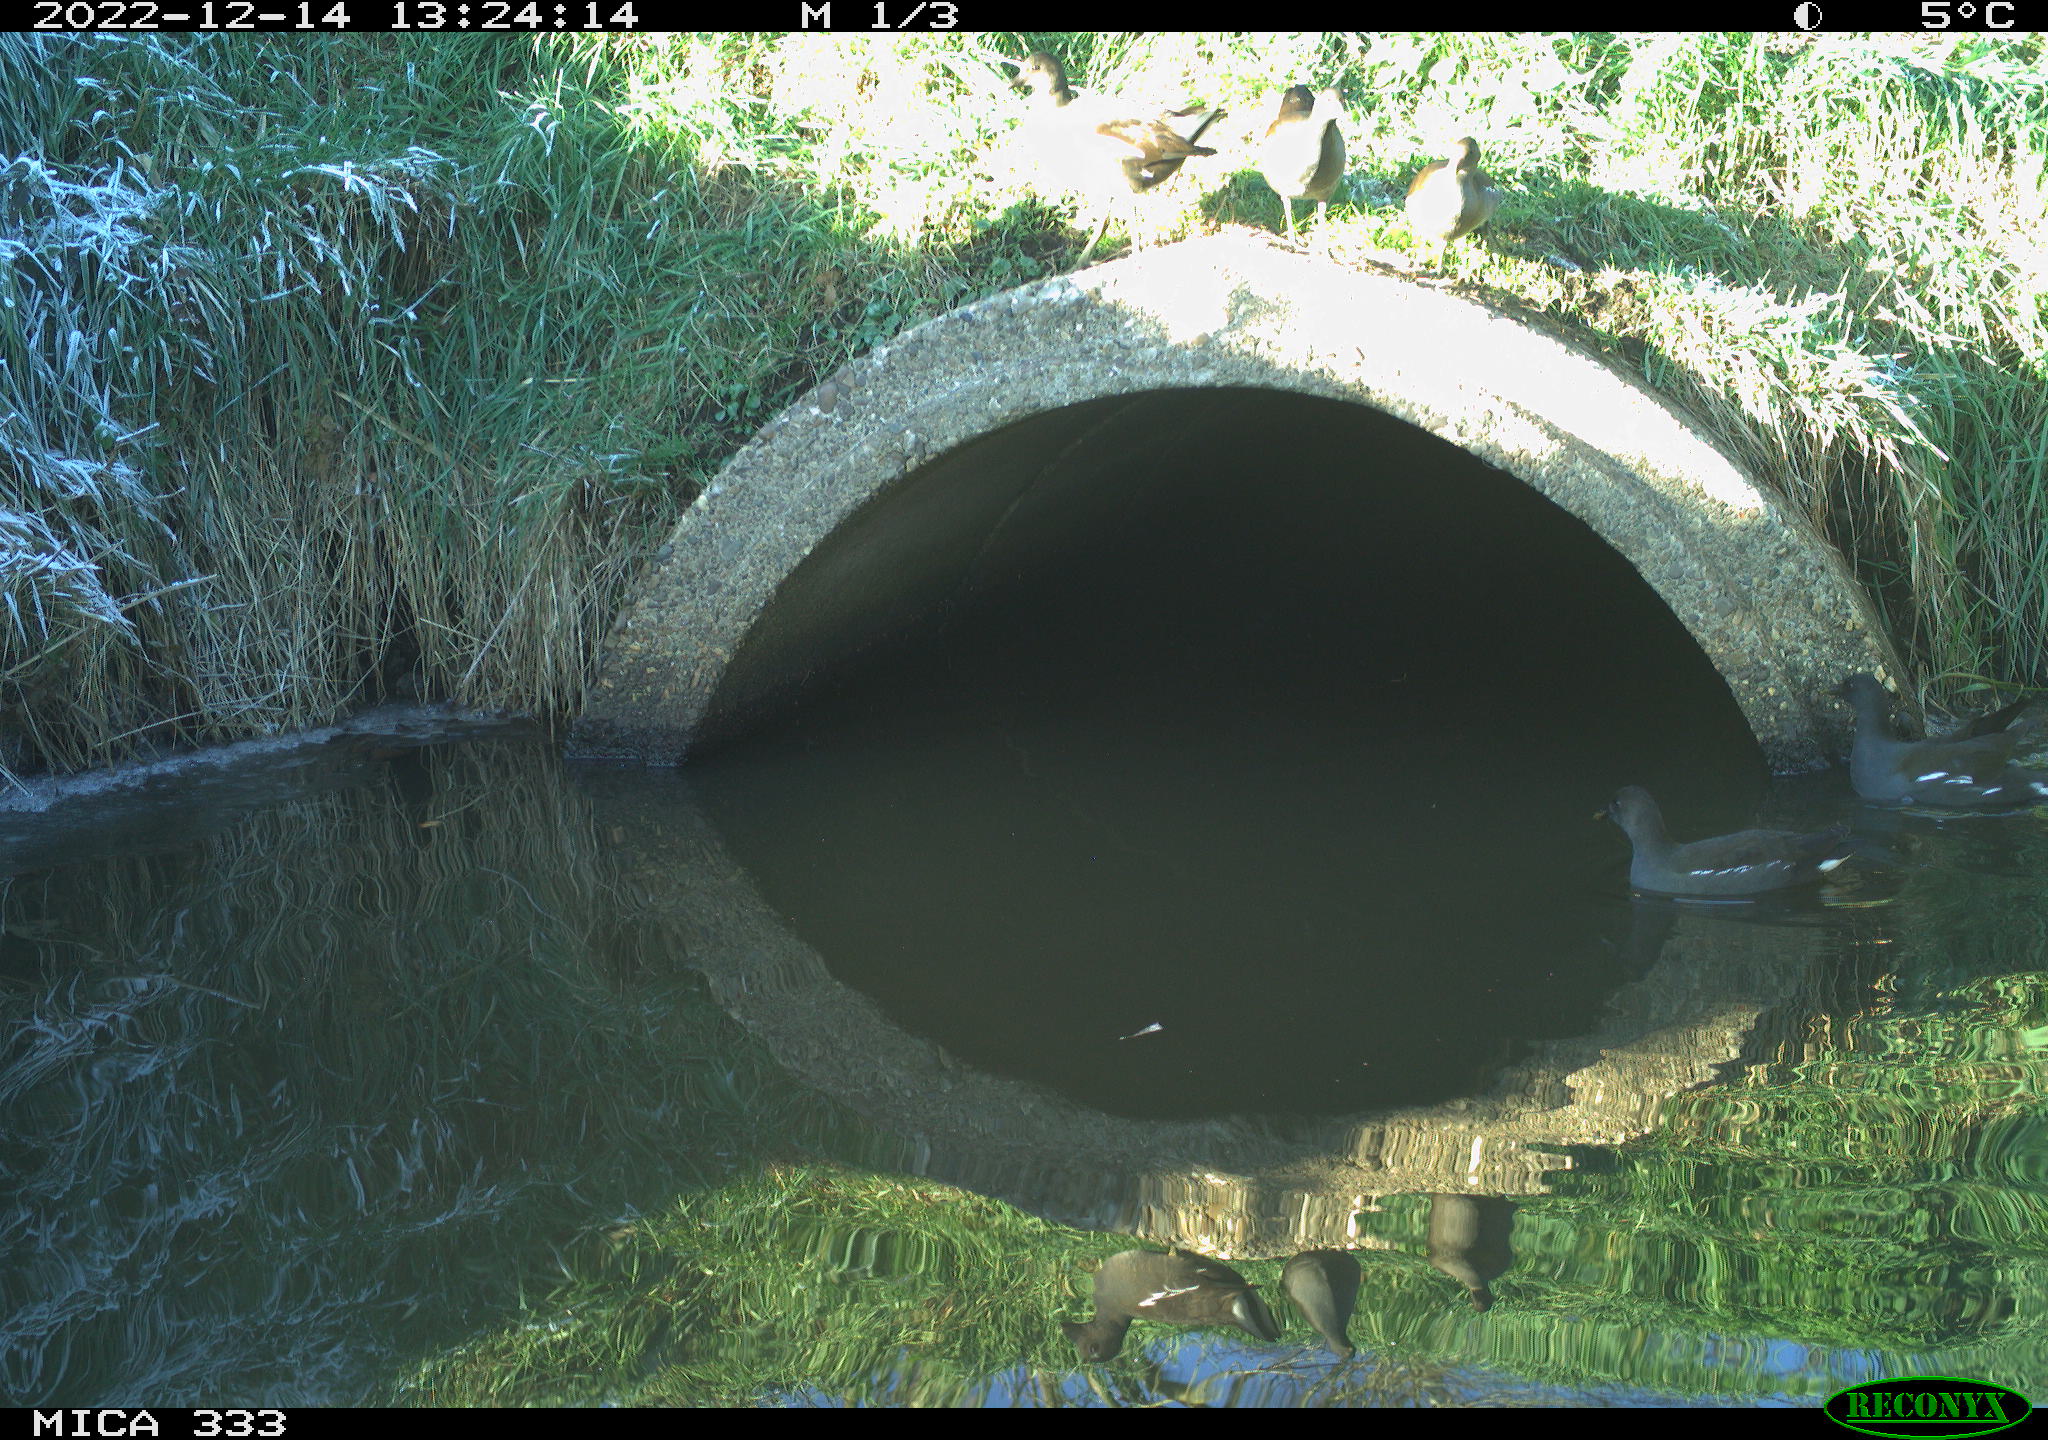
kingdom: Animalia
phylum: Chordata
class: Aves
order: Gruiformes
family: Rallidae
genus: Gallinula
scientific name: Gallinula chloropus
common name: Common moorhen
